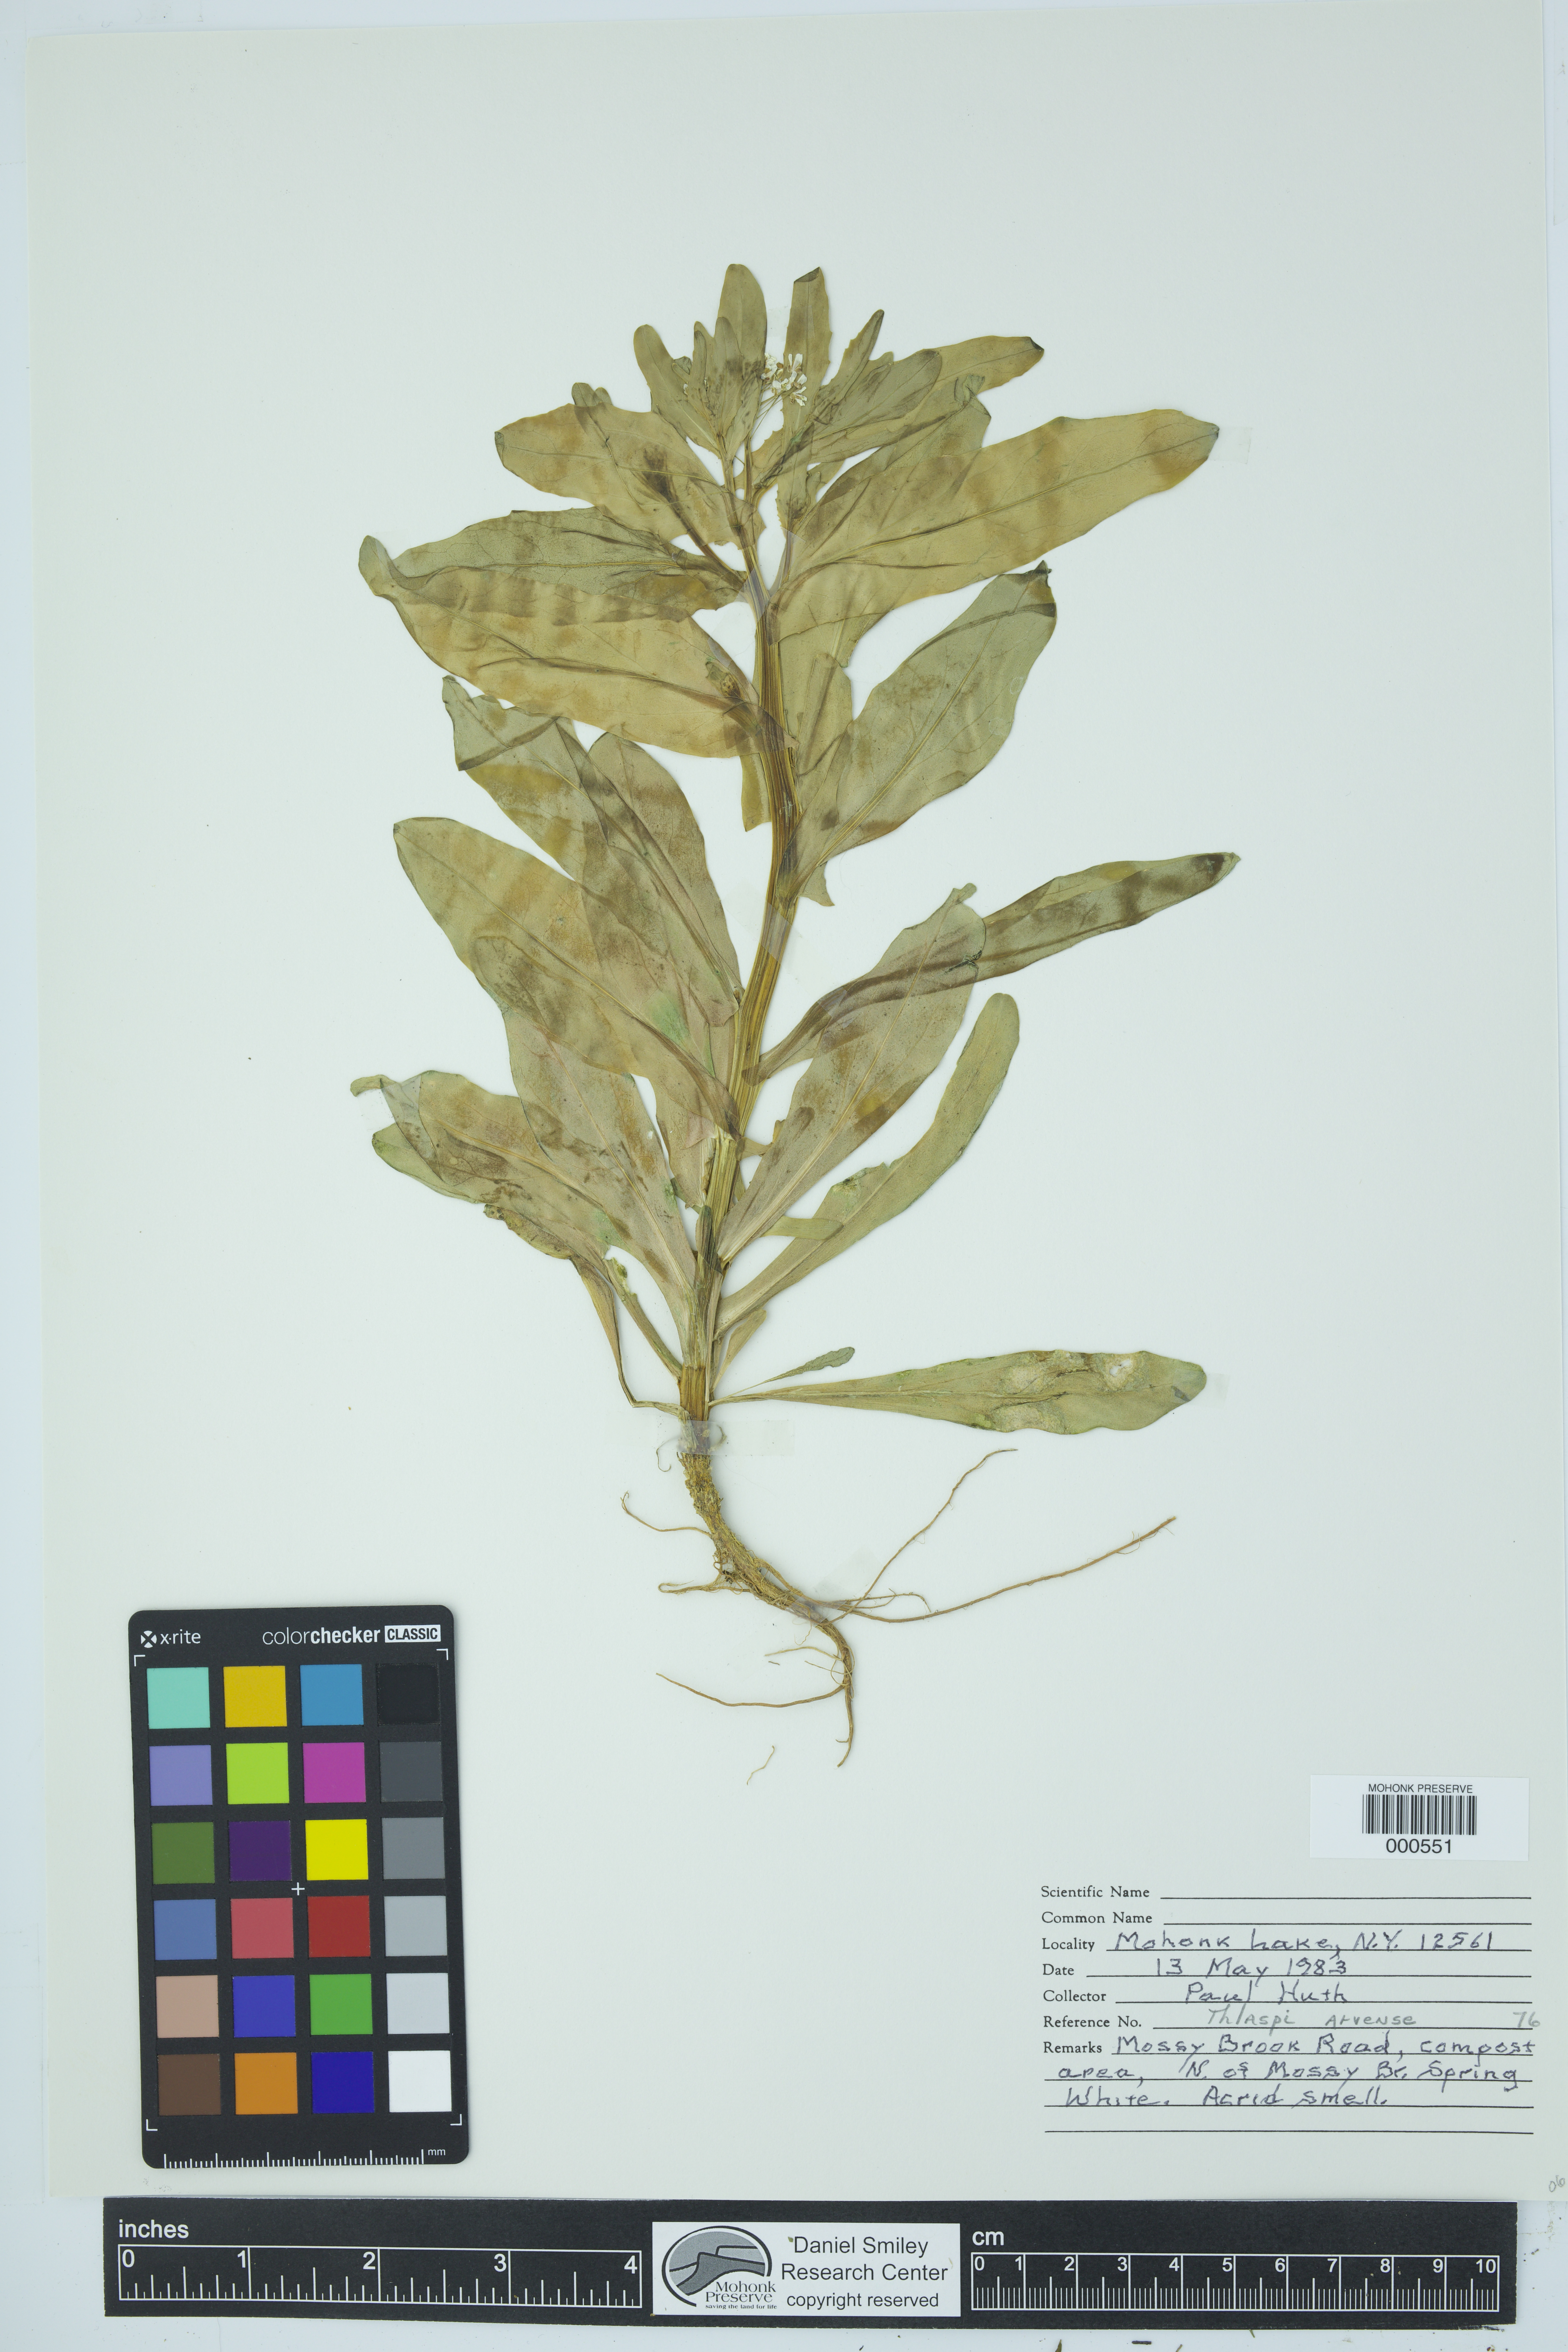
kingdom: Plantae
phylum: Tracheophyta
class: Magnoliopsida
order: Brassicales
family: Brassicaceae
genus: Thlaspi
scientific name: Thlaspi arvense
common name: Field pennycress
